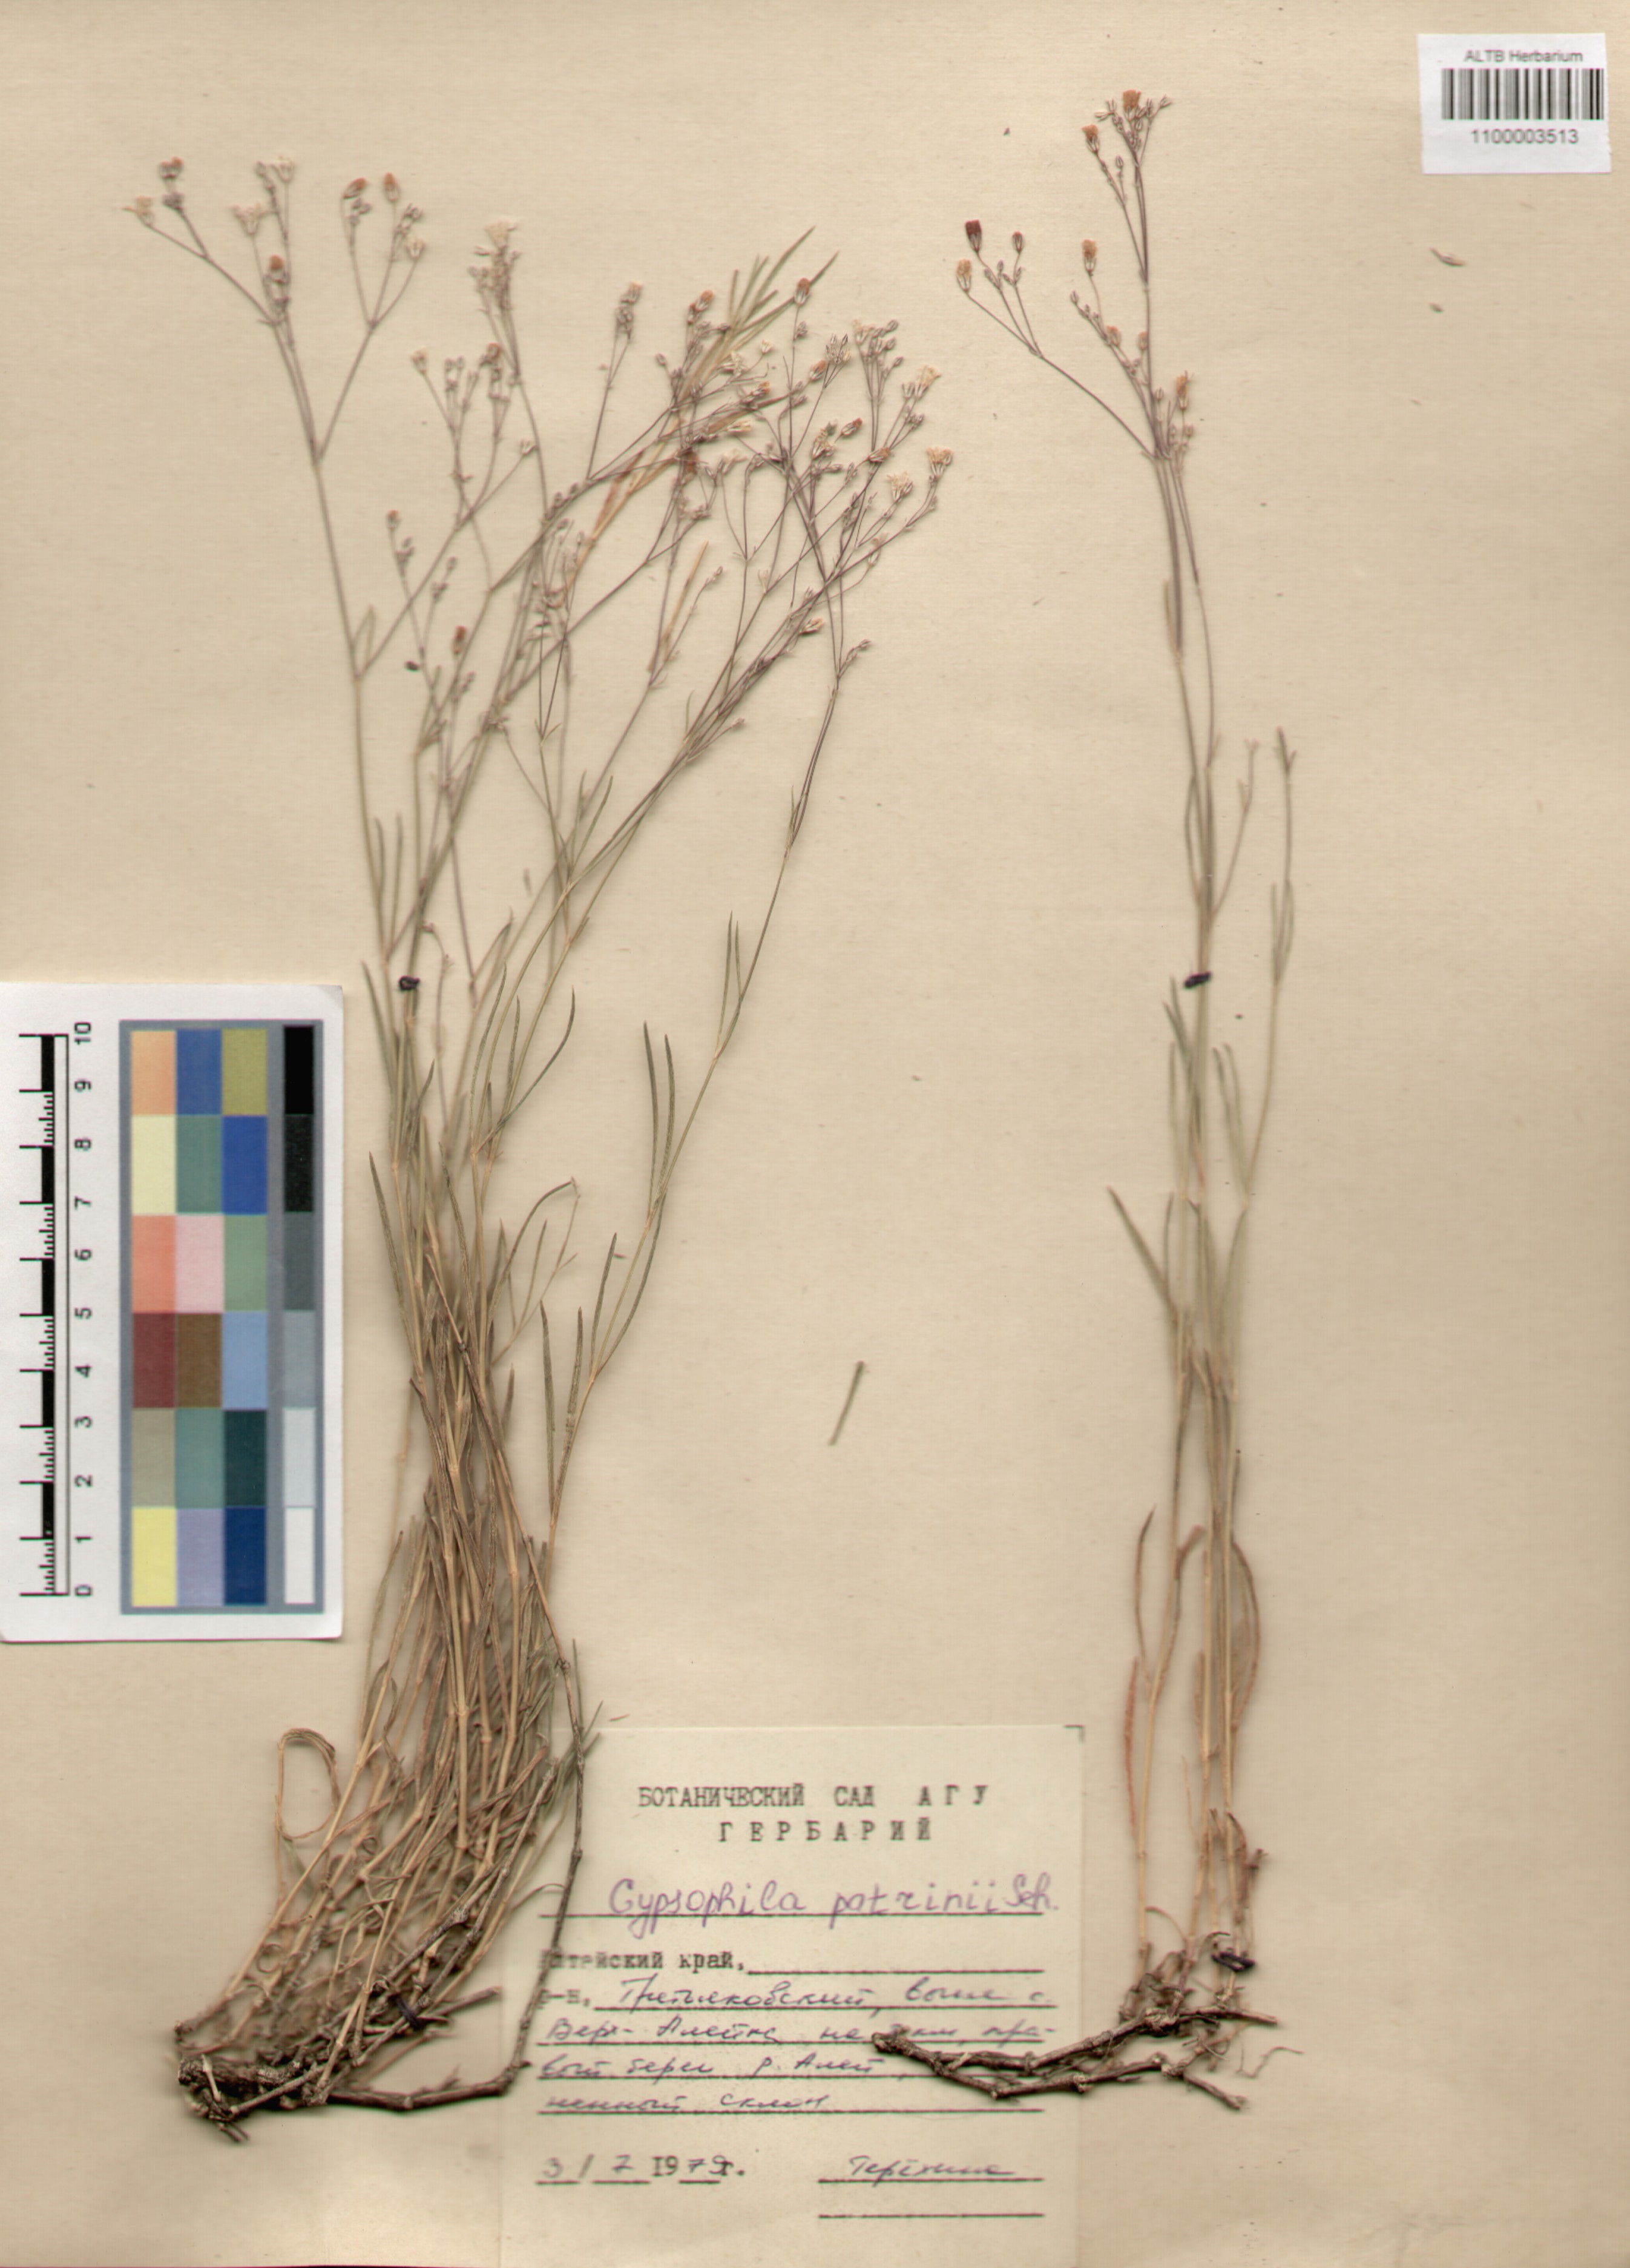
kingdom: Plantae
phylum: Tracheophyta
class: Magnoliopsida
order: Caryophyllales
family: Caryophyllaceae
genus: Gypsophila
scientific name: Gypsophila patrinii
